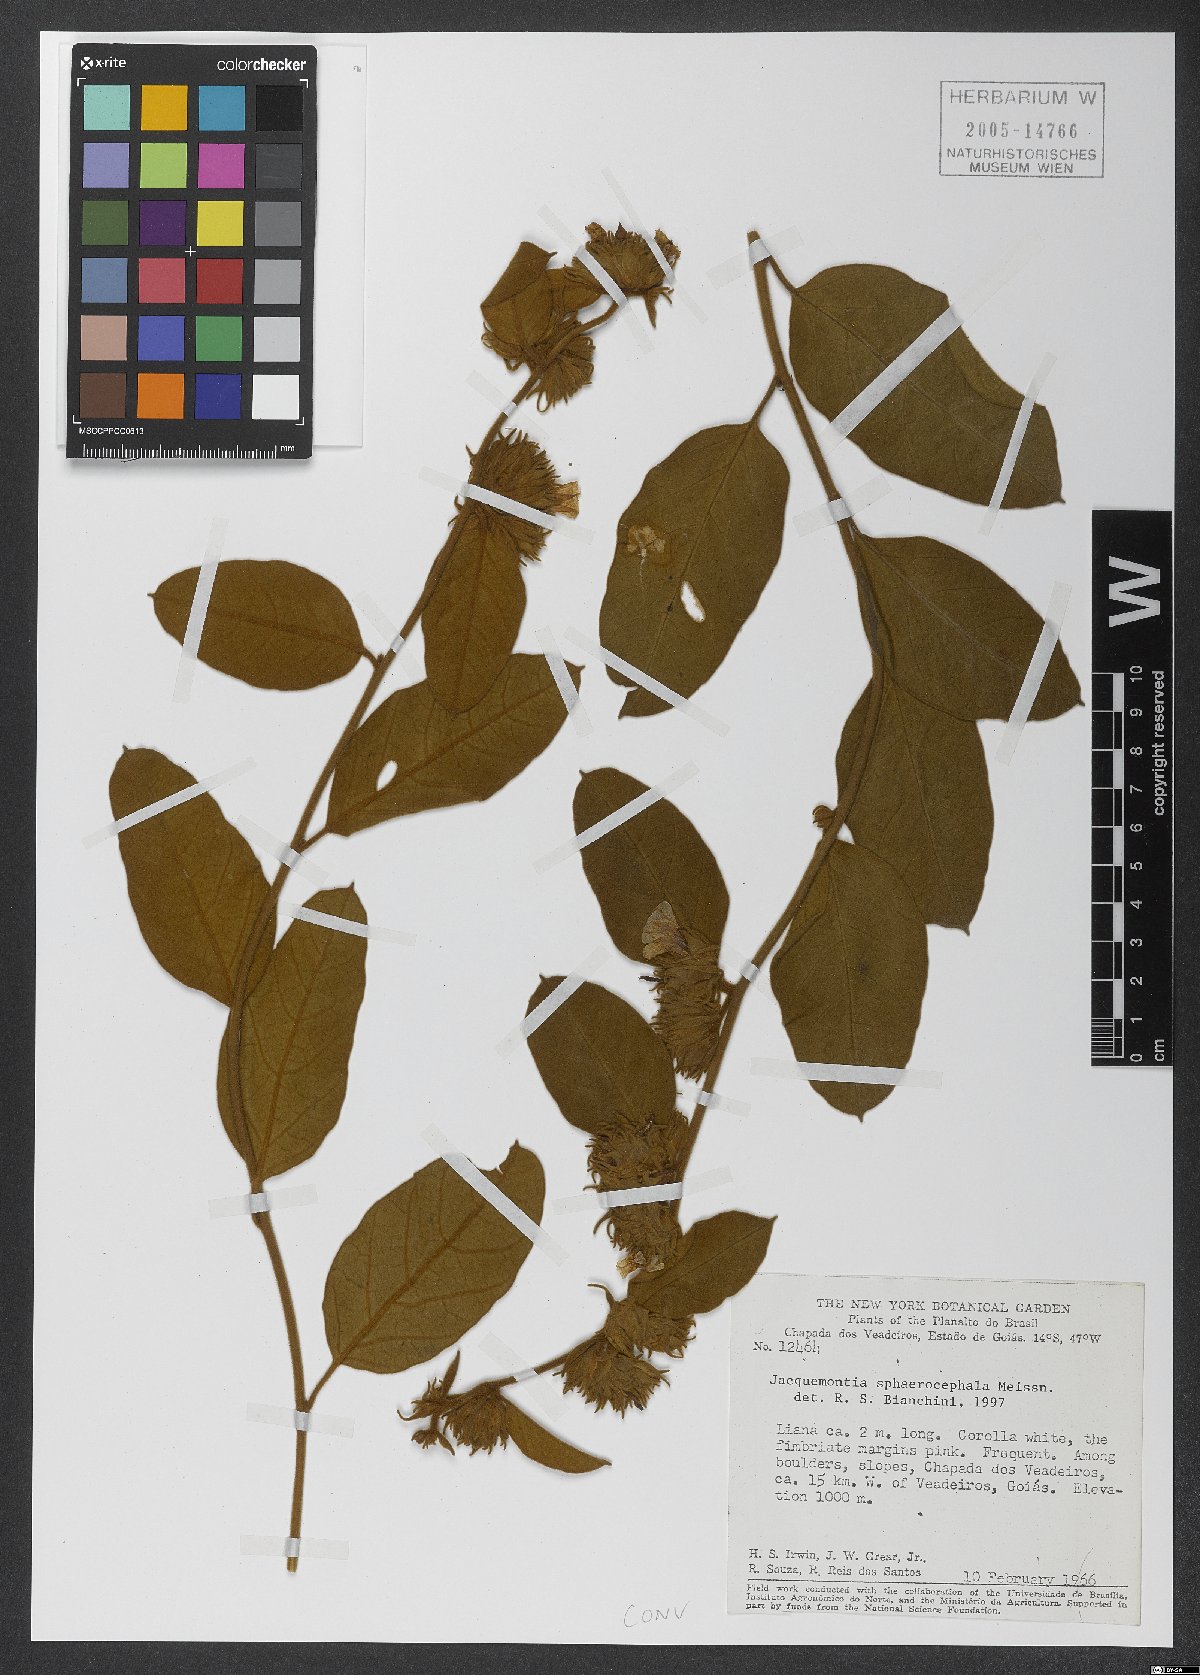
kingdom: Plantae
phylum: Tracheophyta
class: Magnoliopsida
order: Solanales
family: Convolvulaceae
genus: Jacquemontia
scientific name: Jacquemontia sphaerocephala
